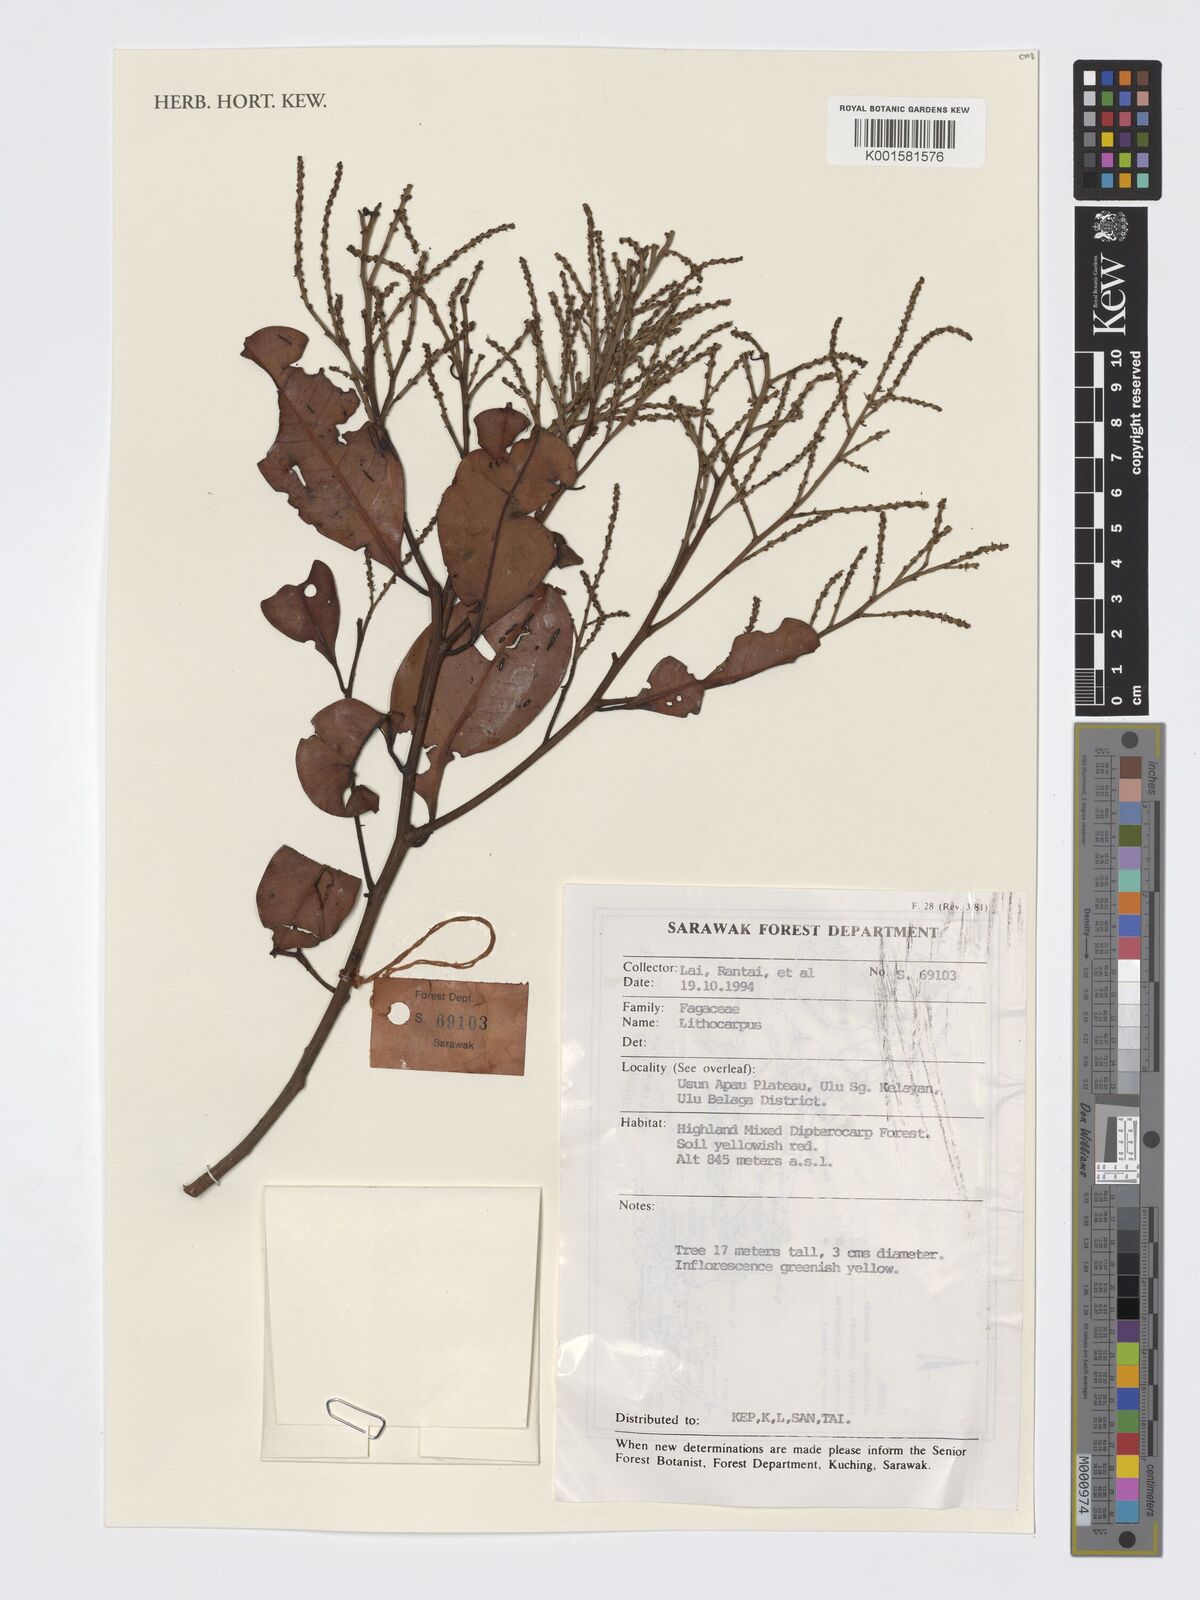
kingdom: Plantae
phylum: Tracheophyta
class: Magnoliopsida
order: Fagales
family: Fagaceae
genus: Lithocarpus
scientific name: Lithocarpus
